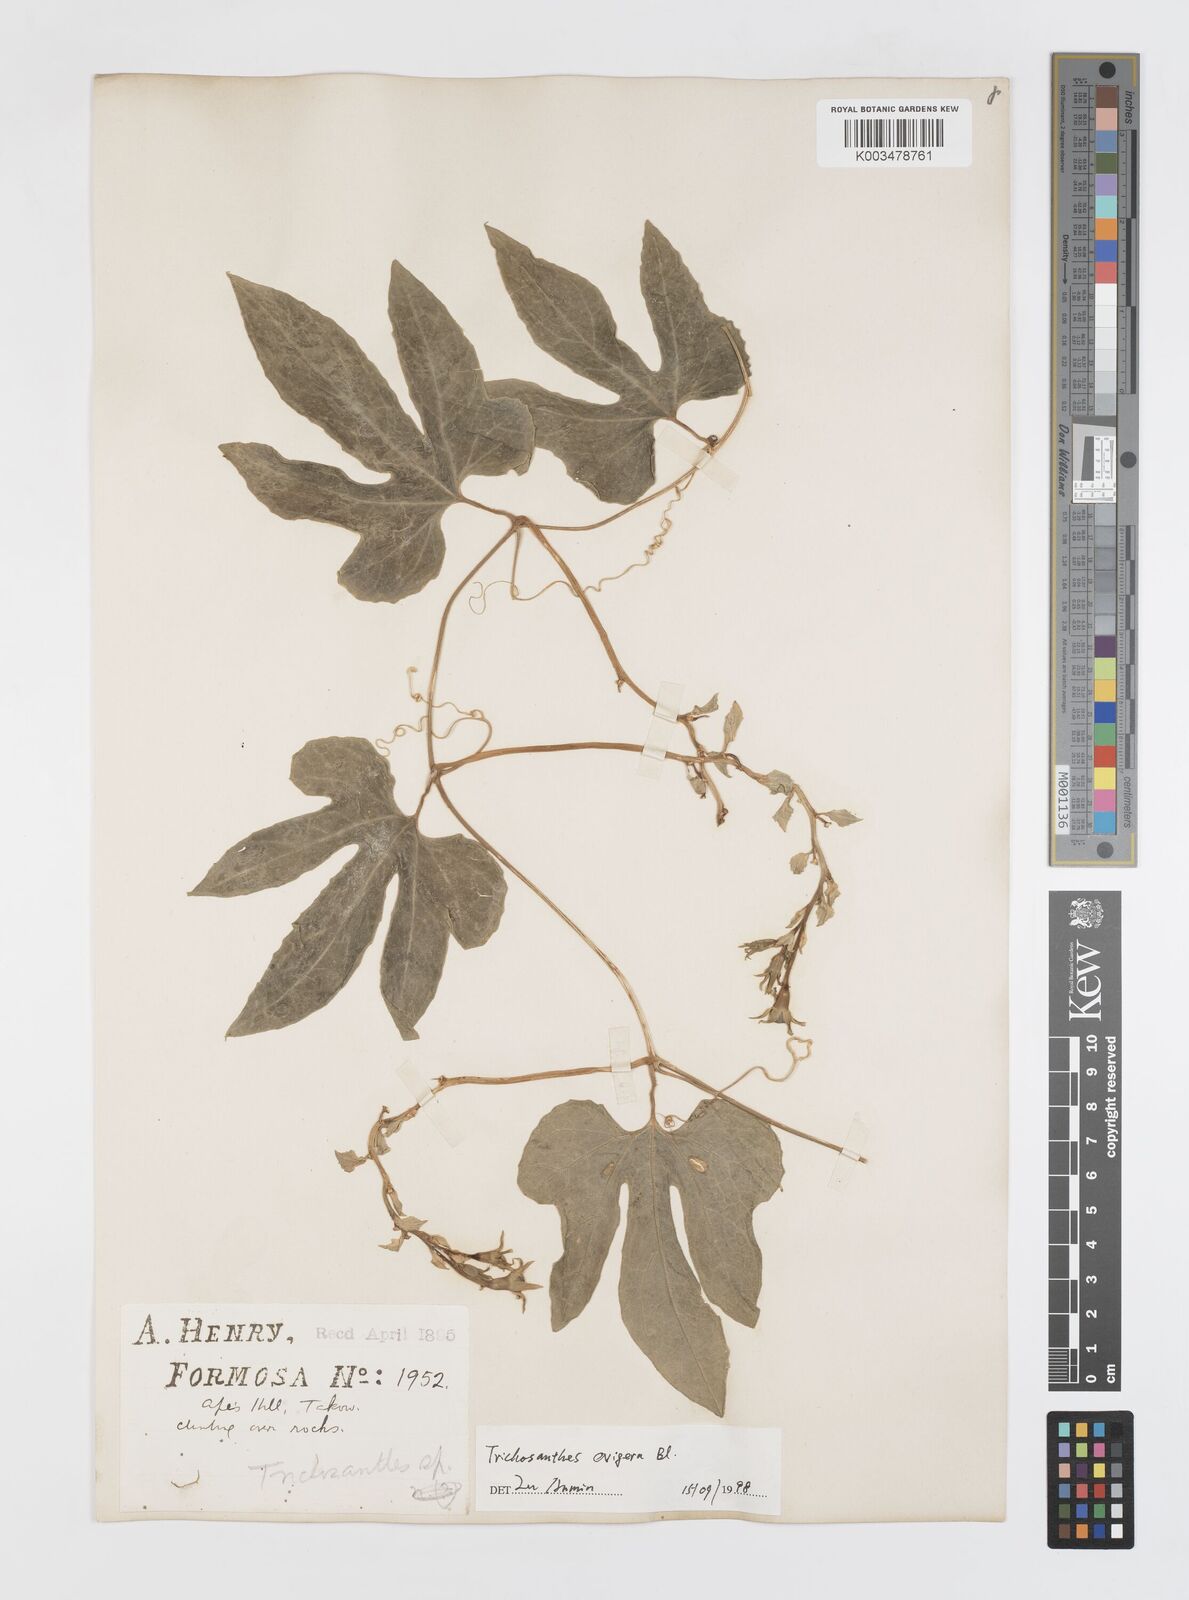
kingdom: Plantae
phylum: Tracheophyta
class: Magnoliopsida
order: Cucurbitales
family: Cucurbitaceae
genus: Trichosanthes
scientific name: Trichosanthes ovigera
